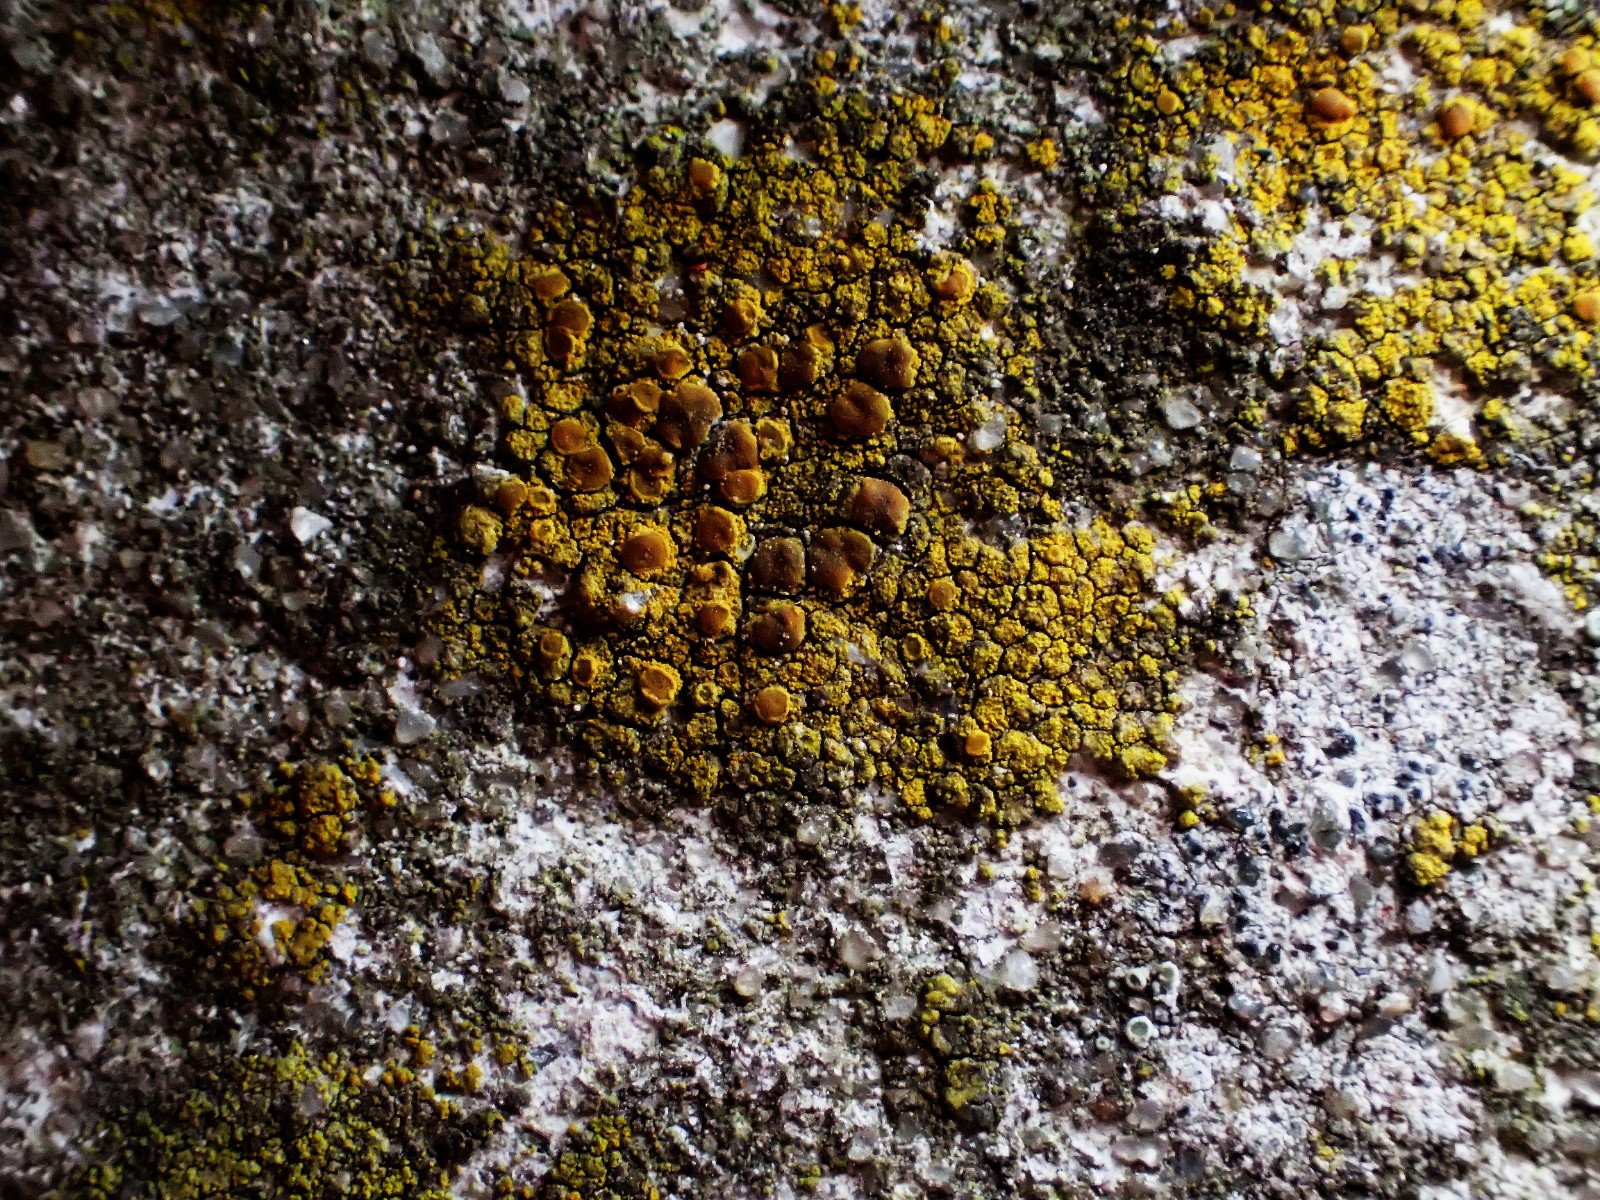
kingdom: Fungi
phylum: Ascomycota
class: Candelariomycetes
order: Candelariales
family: Candelariaceae
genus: Candelariella
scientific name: Candelariella vitellina
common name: almindelig æggeblommelav
